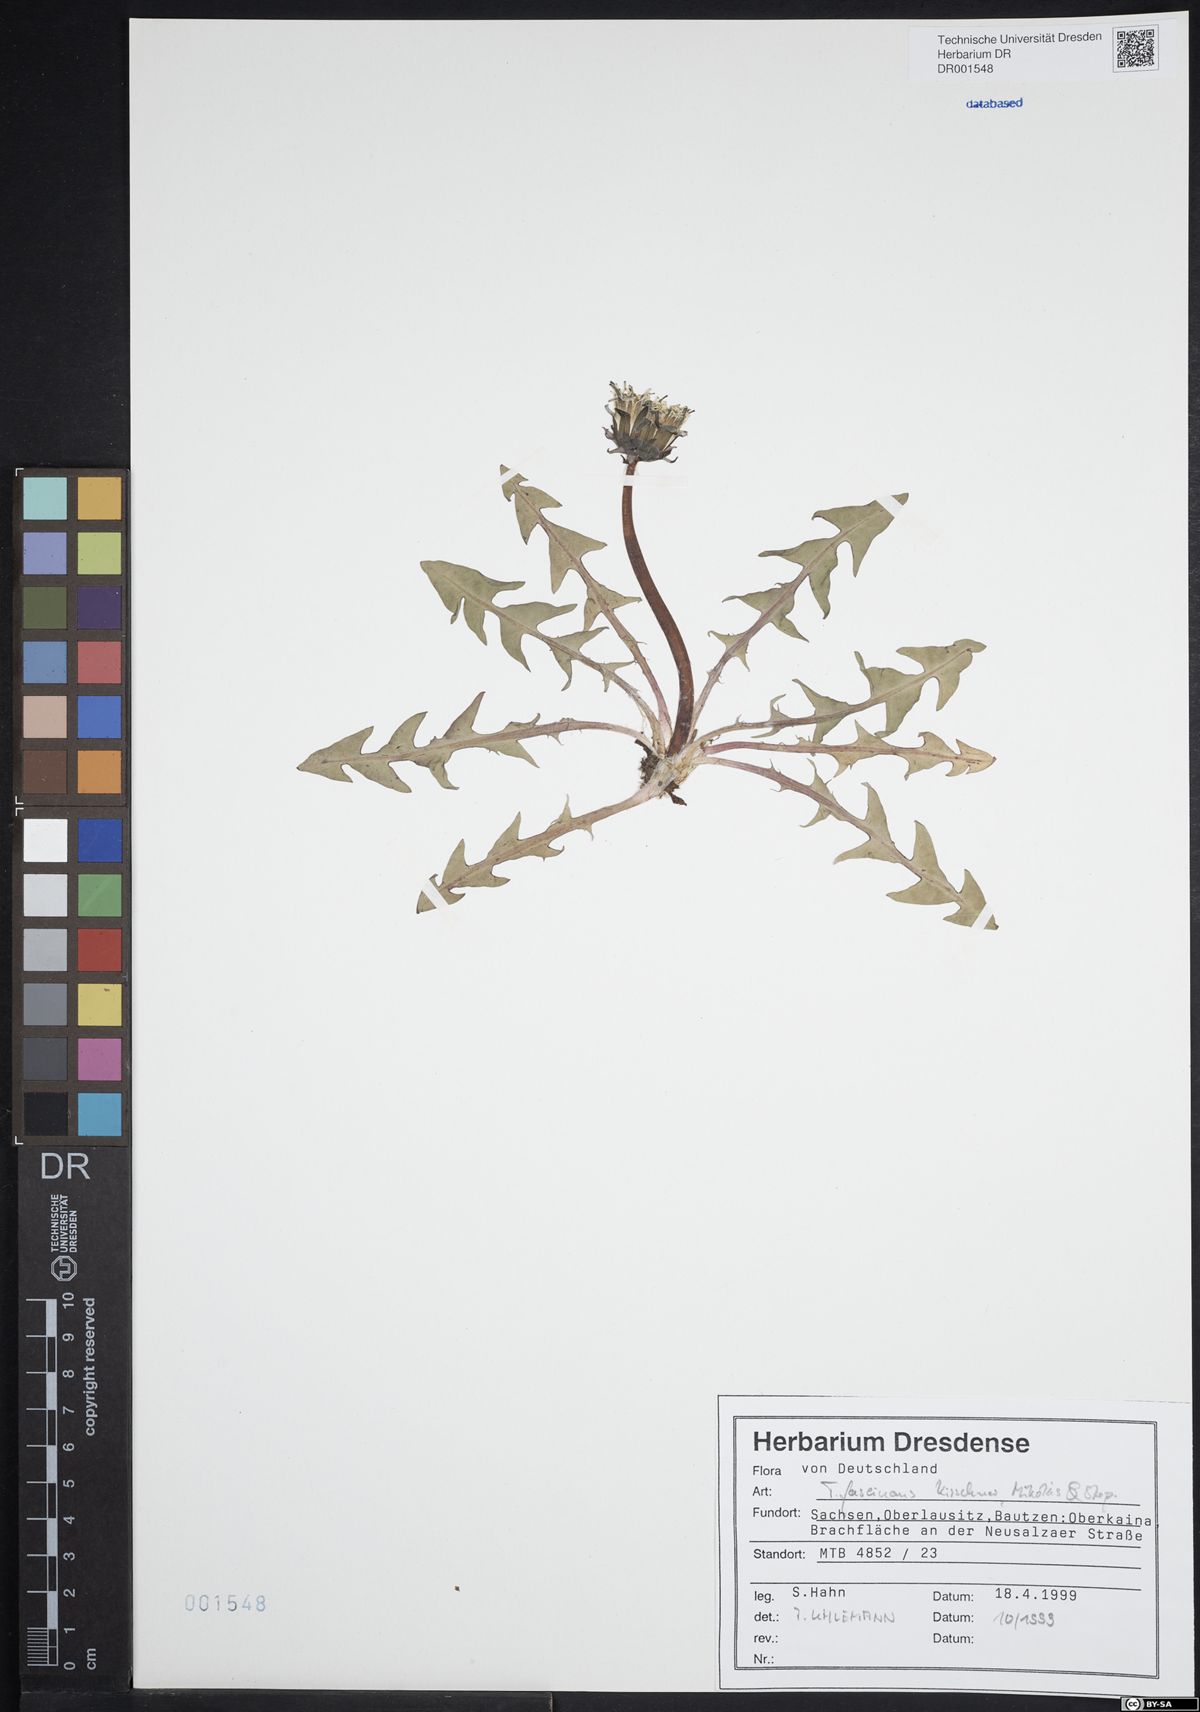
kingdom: Plantae
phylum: Tracheophyta
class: Magnoliopsida
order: Asterales
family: Asteraceae
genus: Taraxacum
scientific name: Taraxacum fascinans
